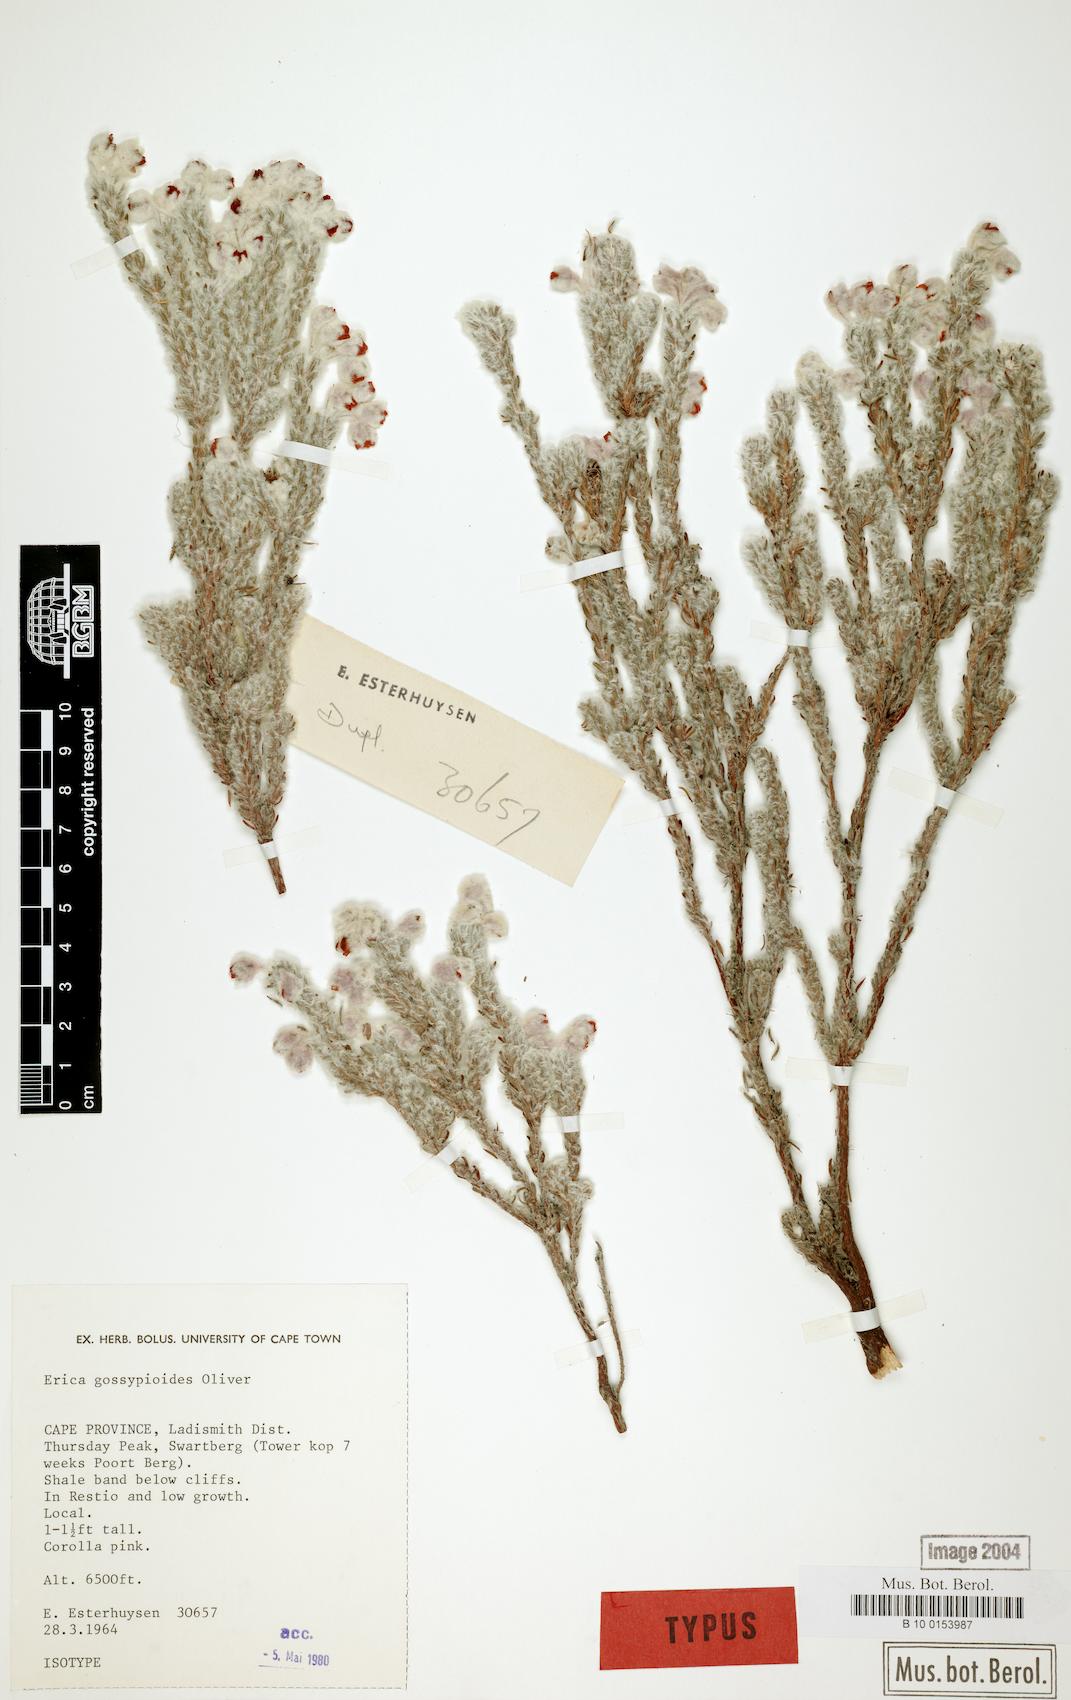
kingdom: Plantae
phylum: Tracheophyta
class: Magnoliopsida
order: Ericales
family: Ericaceae
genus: Erica
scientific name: Erica gossypioides
